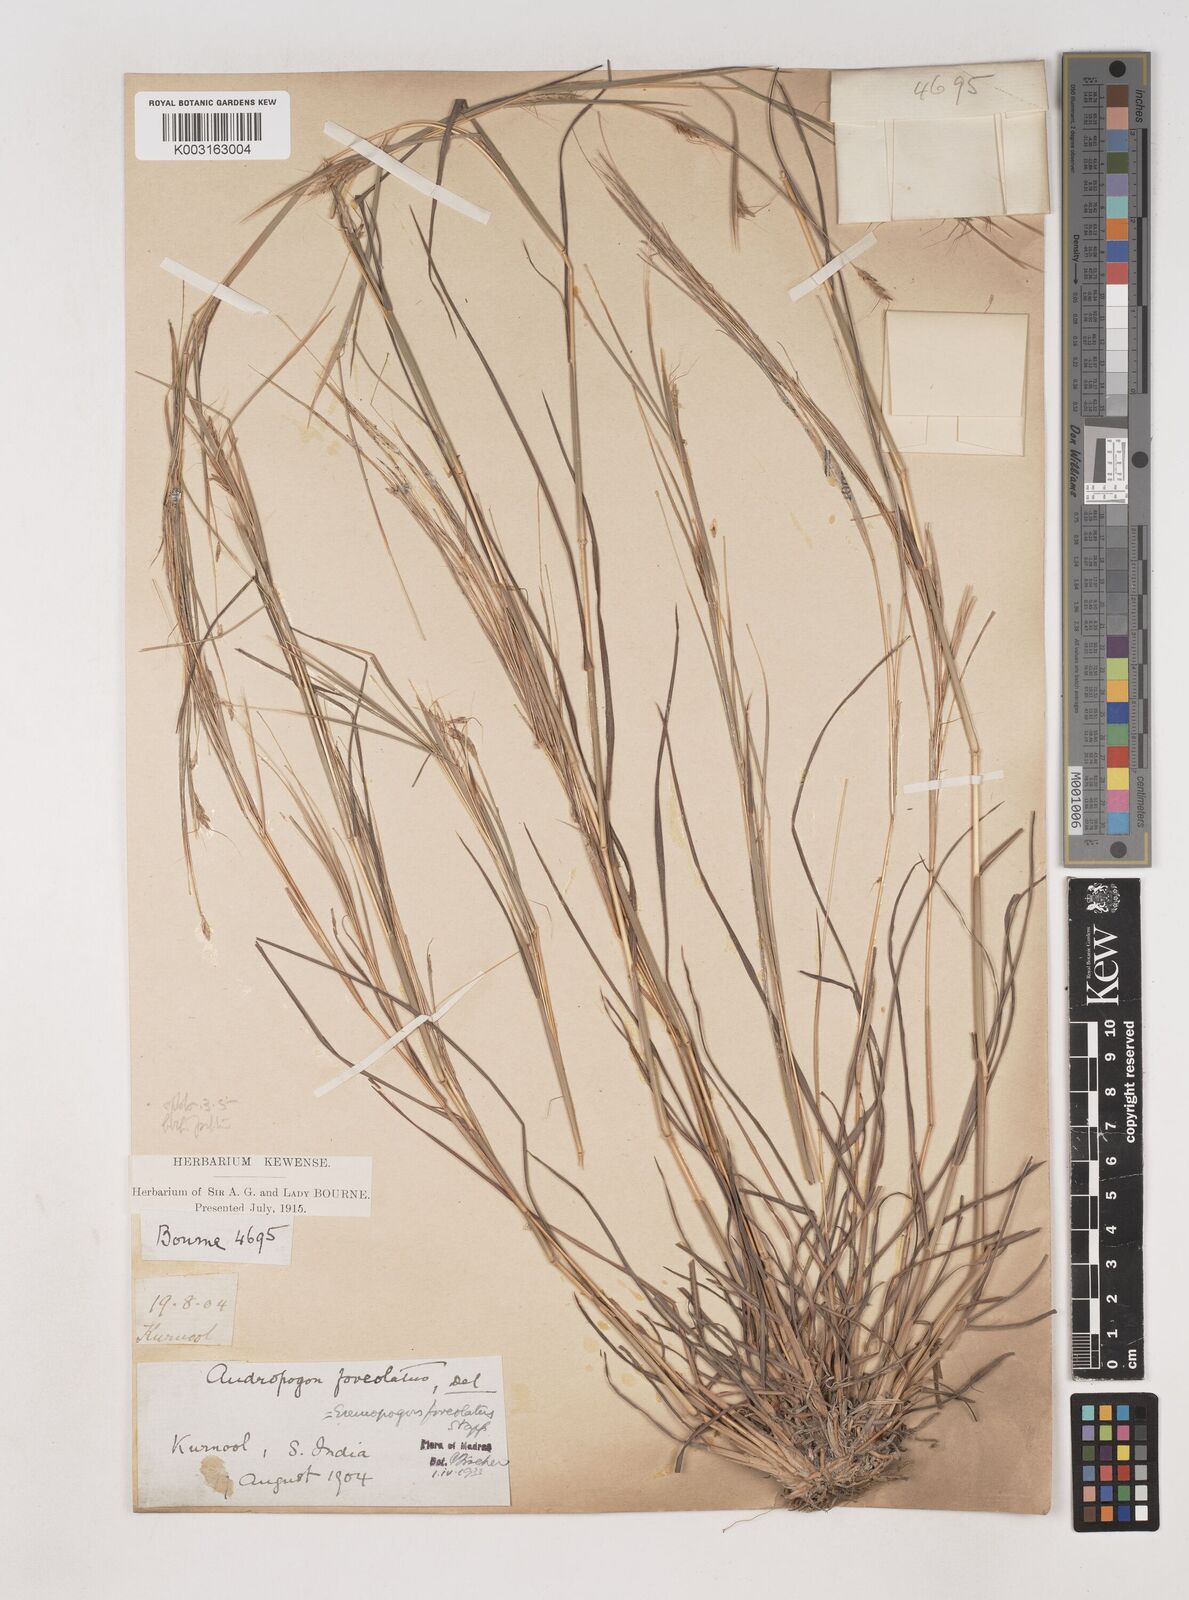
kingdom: Plantae
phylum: Tracheophyta
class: Liliopsida
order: Poales
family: Poaceae
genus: Dichanthium
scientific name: Dichanthium foveolatum
